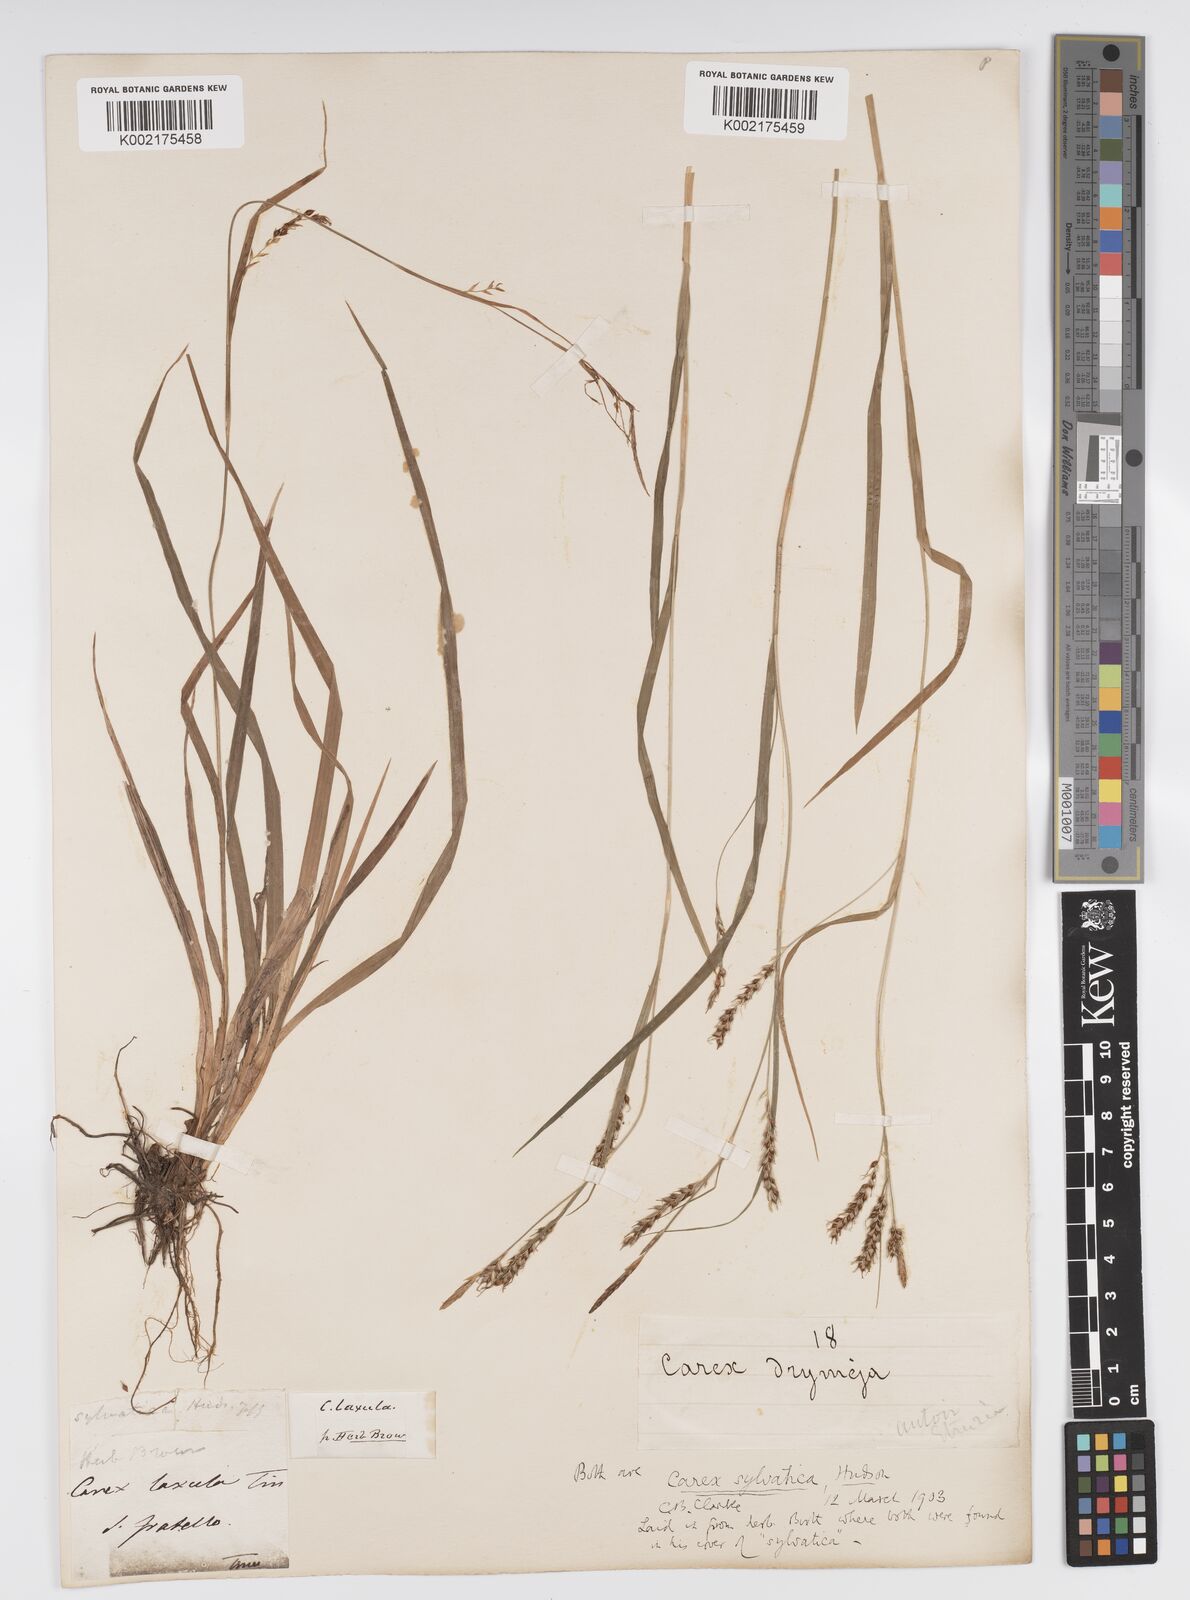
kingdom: Plantae
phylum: Tracheophyta
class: Liliopsida
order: Poales
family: Cyperaceae
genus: Carex
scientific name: Carex sylvatica
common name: Wood-sedge
